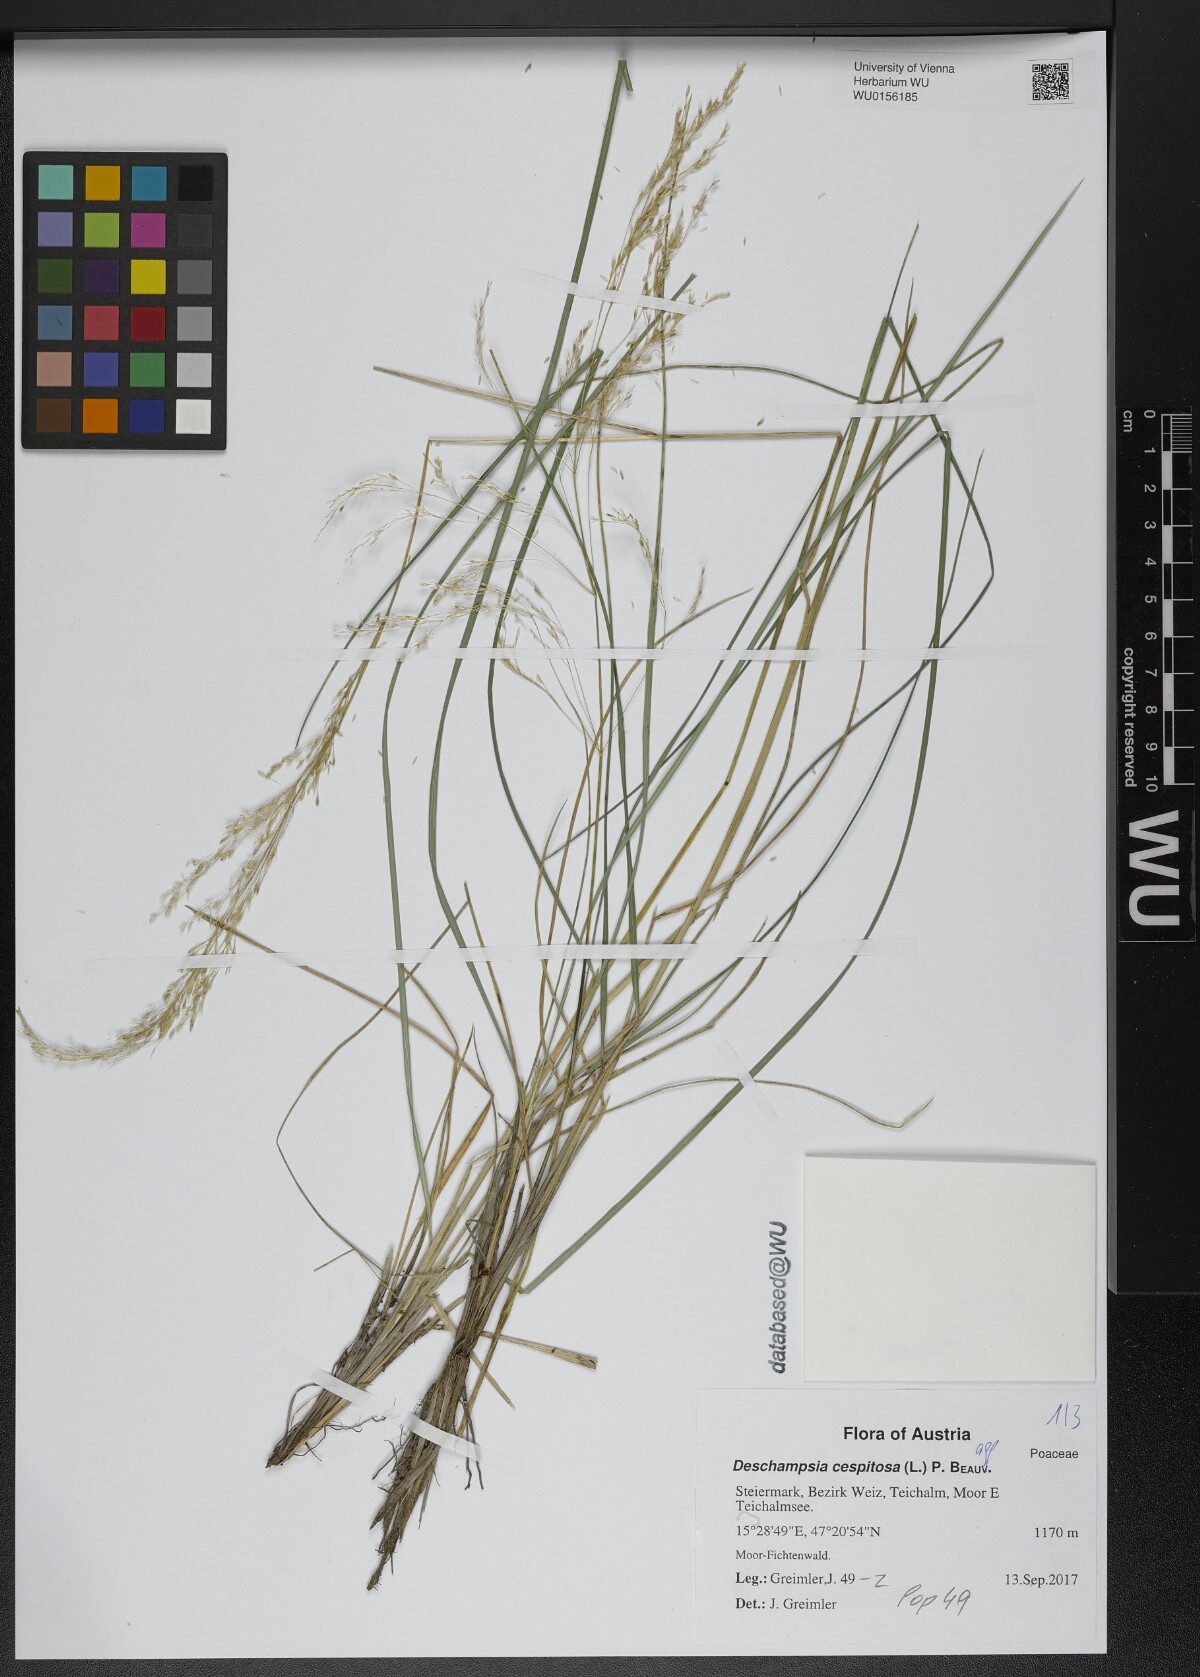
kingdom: Plantae
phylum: Tracheophyta
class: Liliopsida
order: Poales
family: Poaceae
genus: Deschampsia
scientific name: Deschampsia cespitosa
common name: Tufted hair-grass
